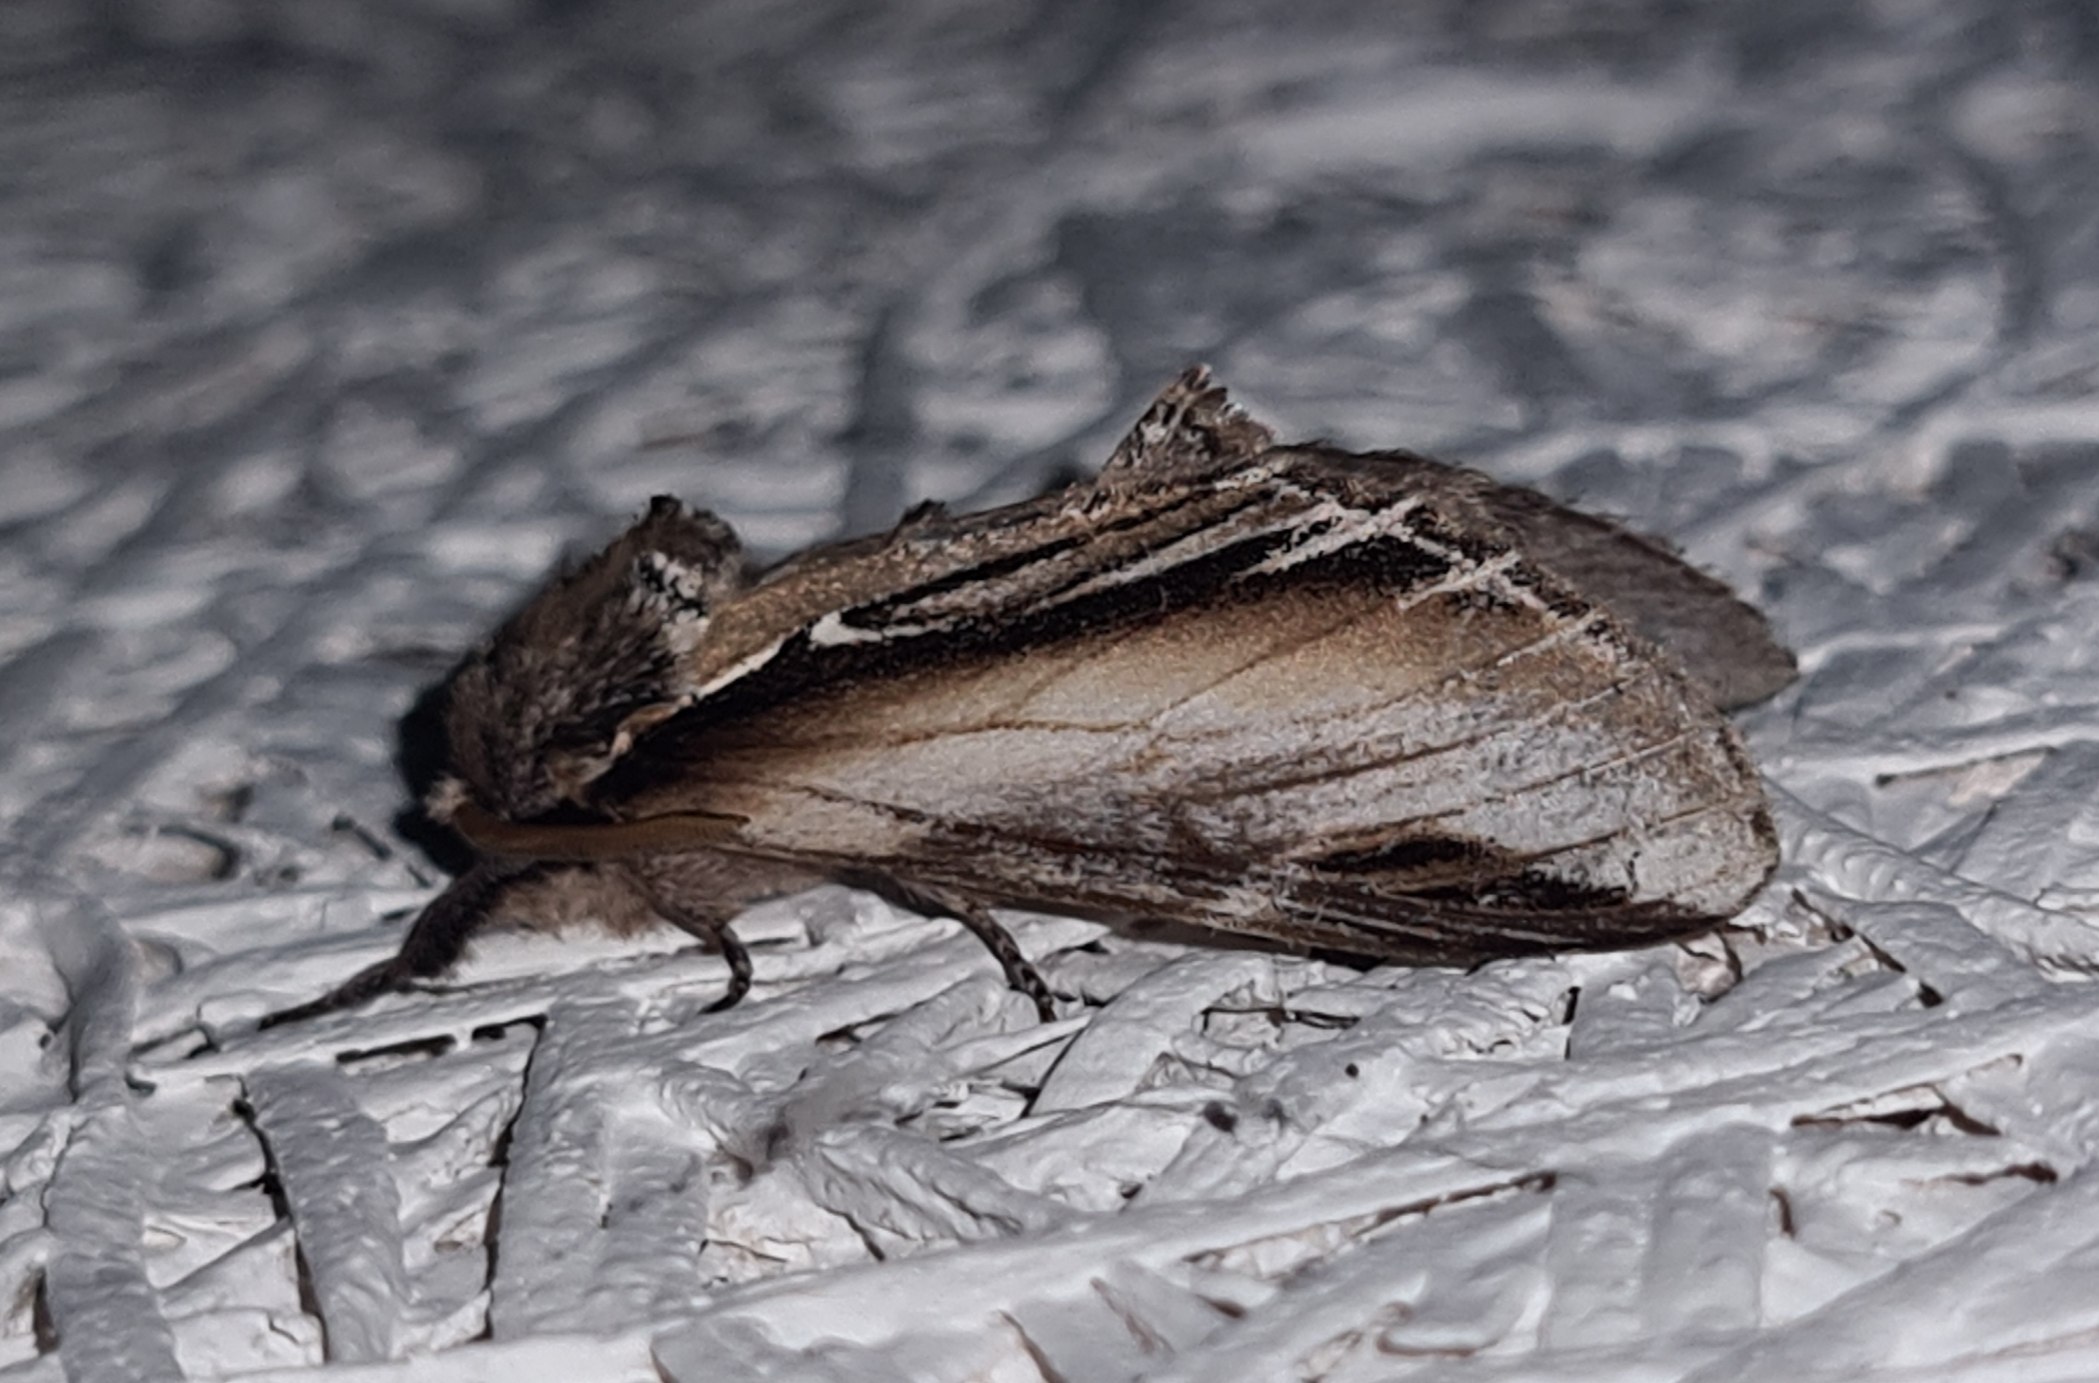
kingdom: Animalia
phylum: Arthropoda
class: Insecta
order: Lepidoptera
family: Notodontidae
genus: Pheosia
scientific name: Pheosia tremula
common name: Poppelporcelænsspinder
